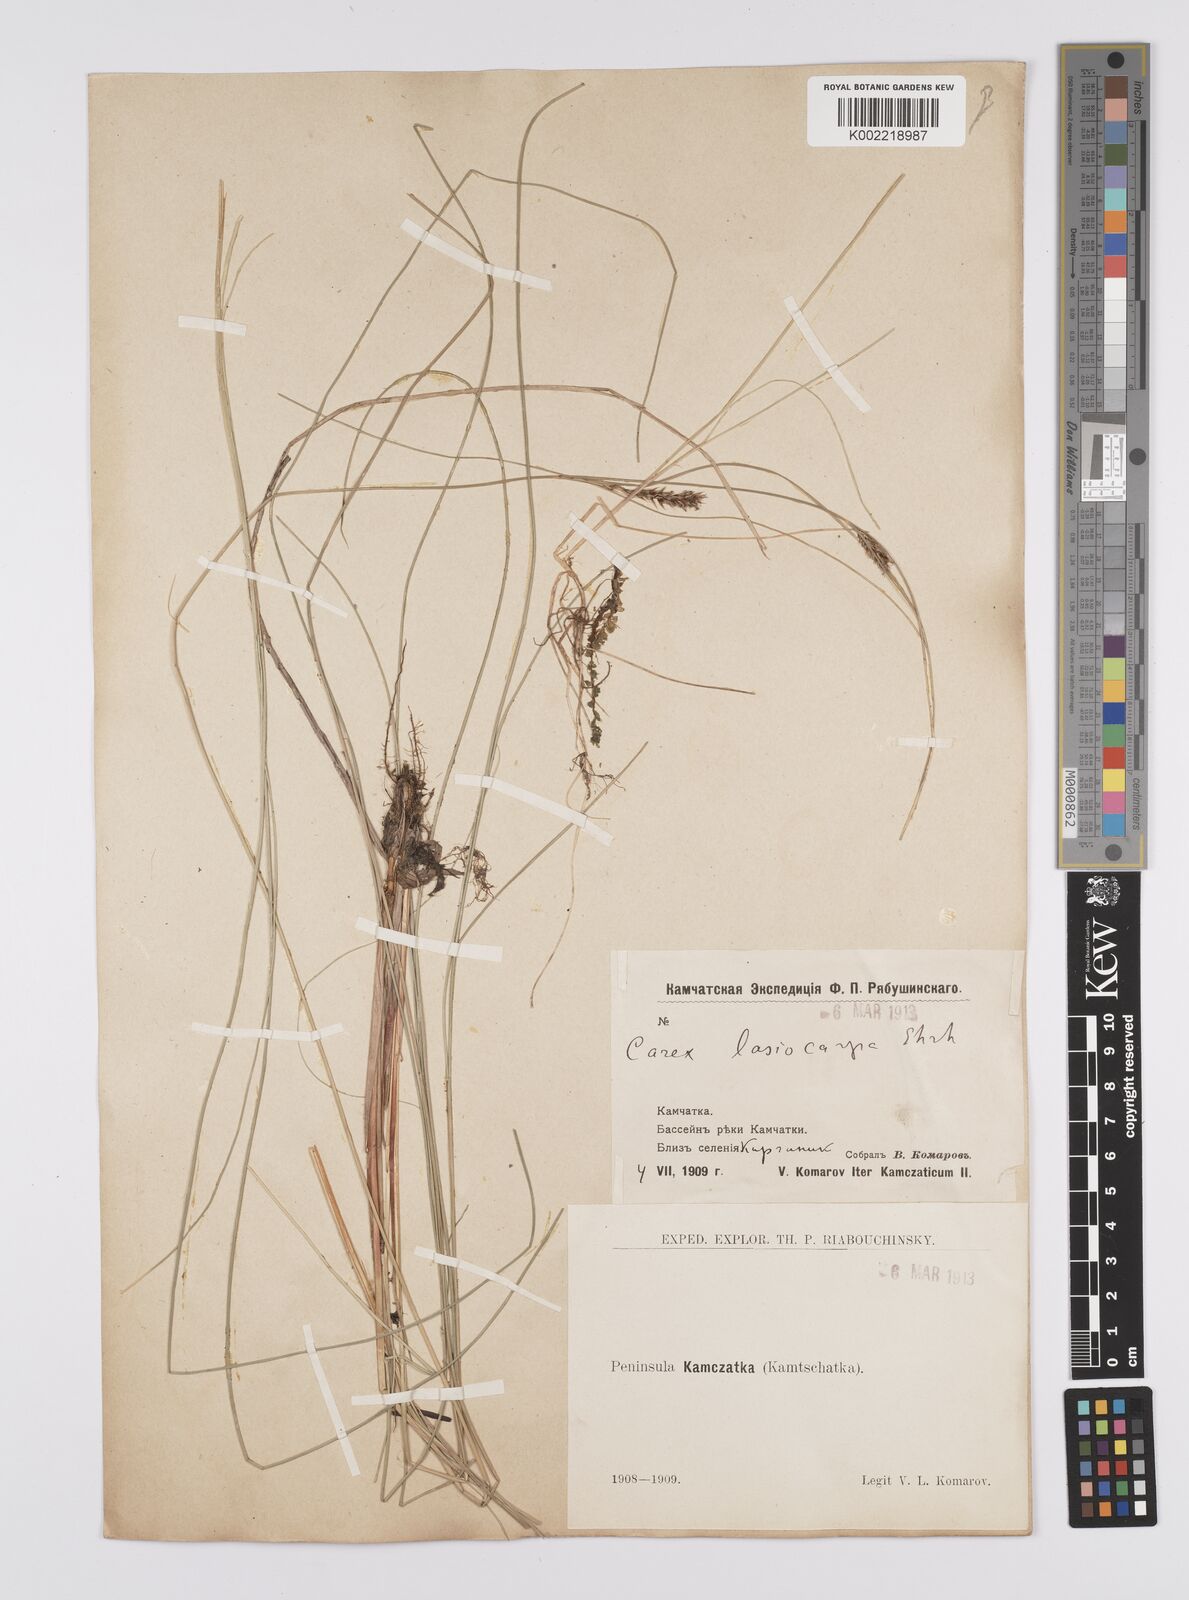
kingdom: Plantae
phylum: Tracheophyta
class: Liliopsida
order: Poales
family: Cyperaceae
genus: Carex
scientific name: Carex lasiocarpa
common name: Slender sedge
